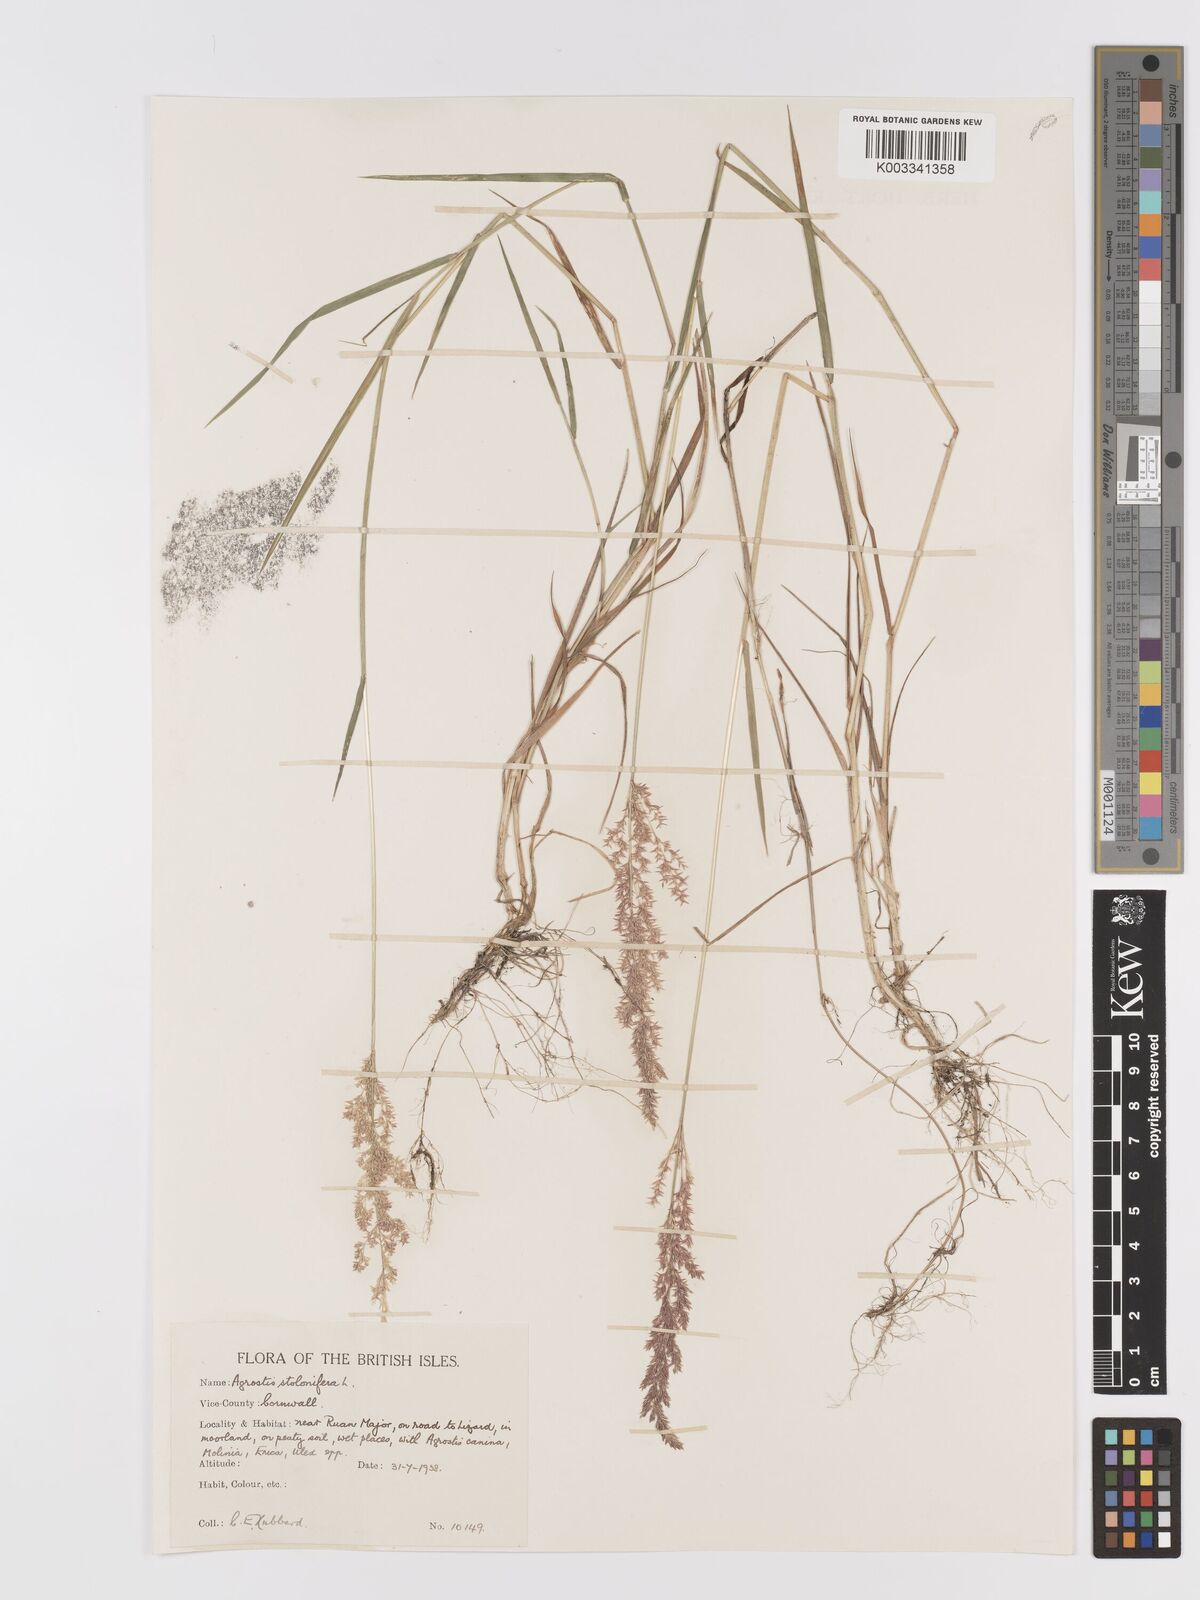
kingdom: Plantae
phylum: Tracheophyta
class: Liliopsida
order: Poales
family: Poaceae
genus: Agrostis
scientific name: Agrostis stolonifera
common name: Creeping bentgrass
